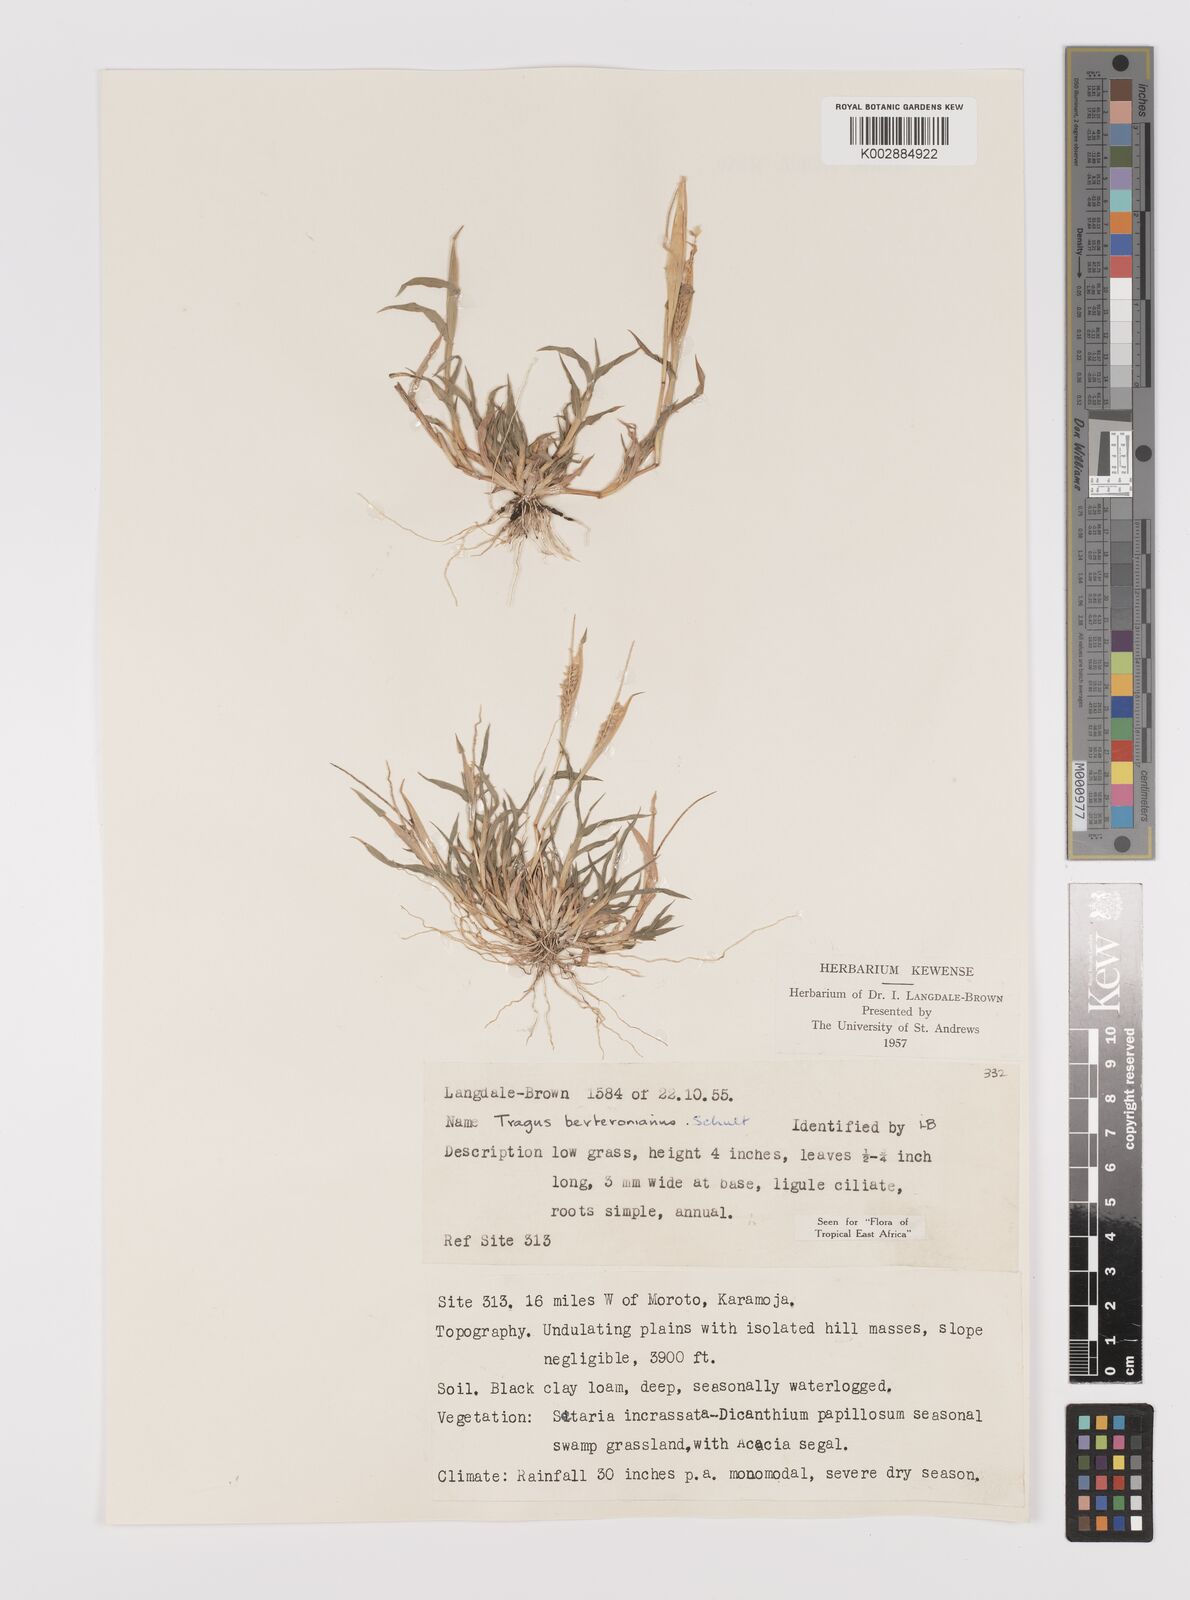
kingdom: Plantae
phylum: Tracheophyta
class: Liliopsida
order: Poales
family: Poaceae
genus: Tragus
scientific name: Tragus berteronianus
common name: African bur-grass
